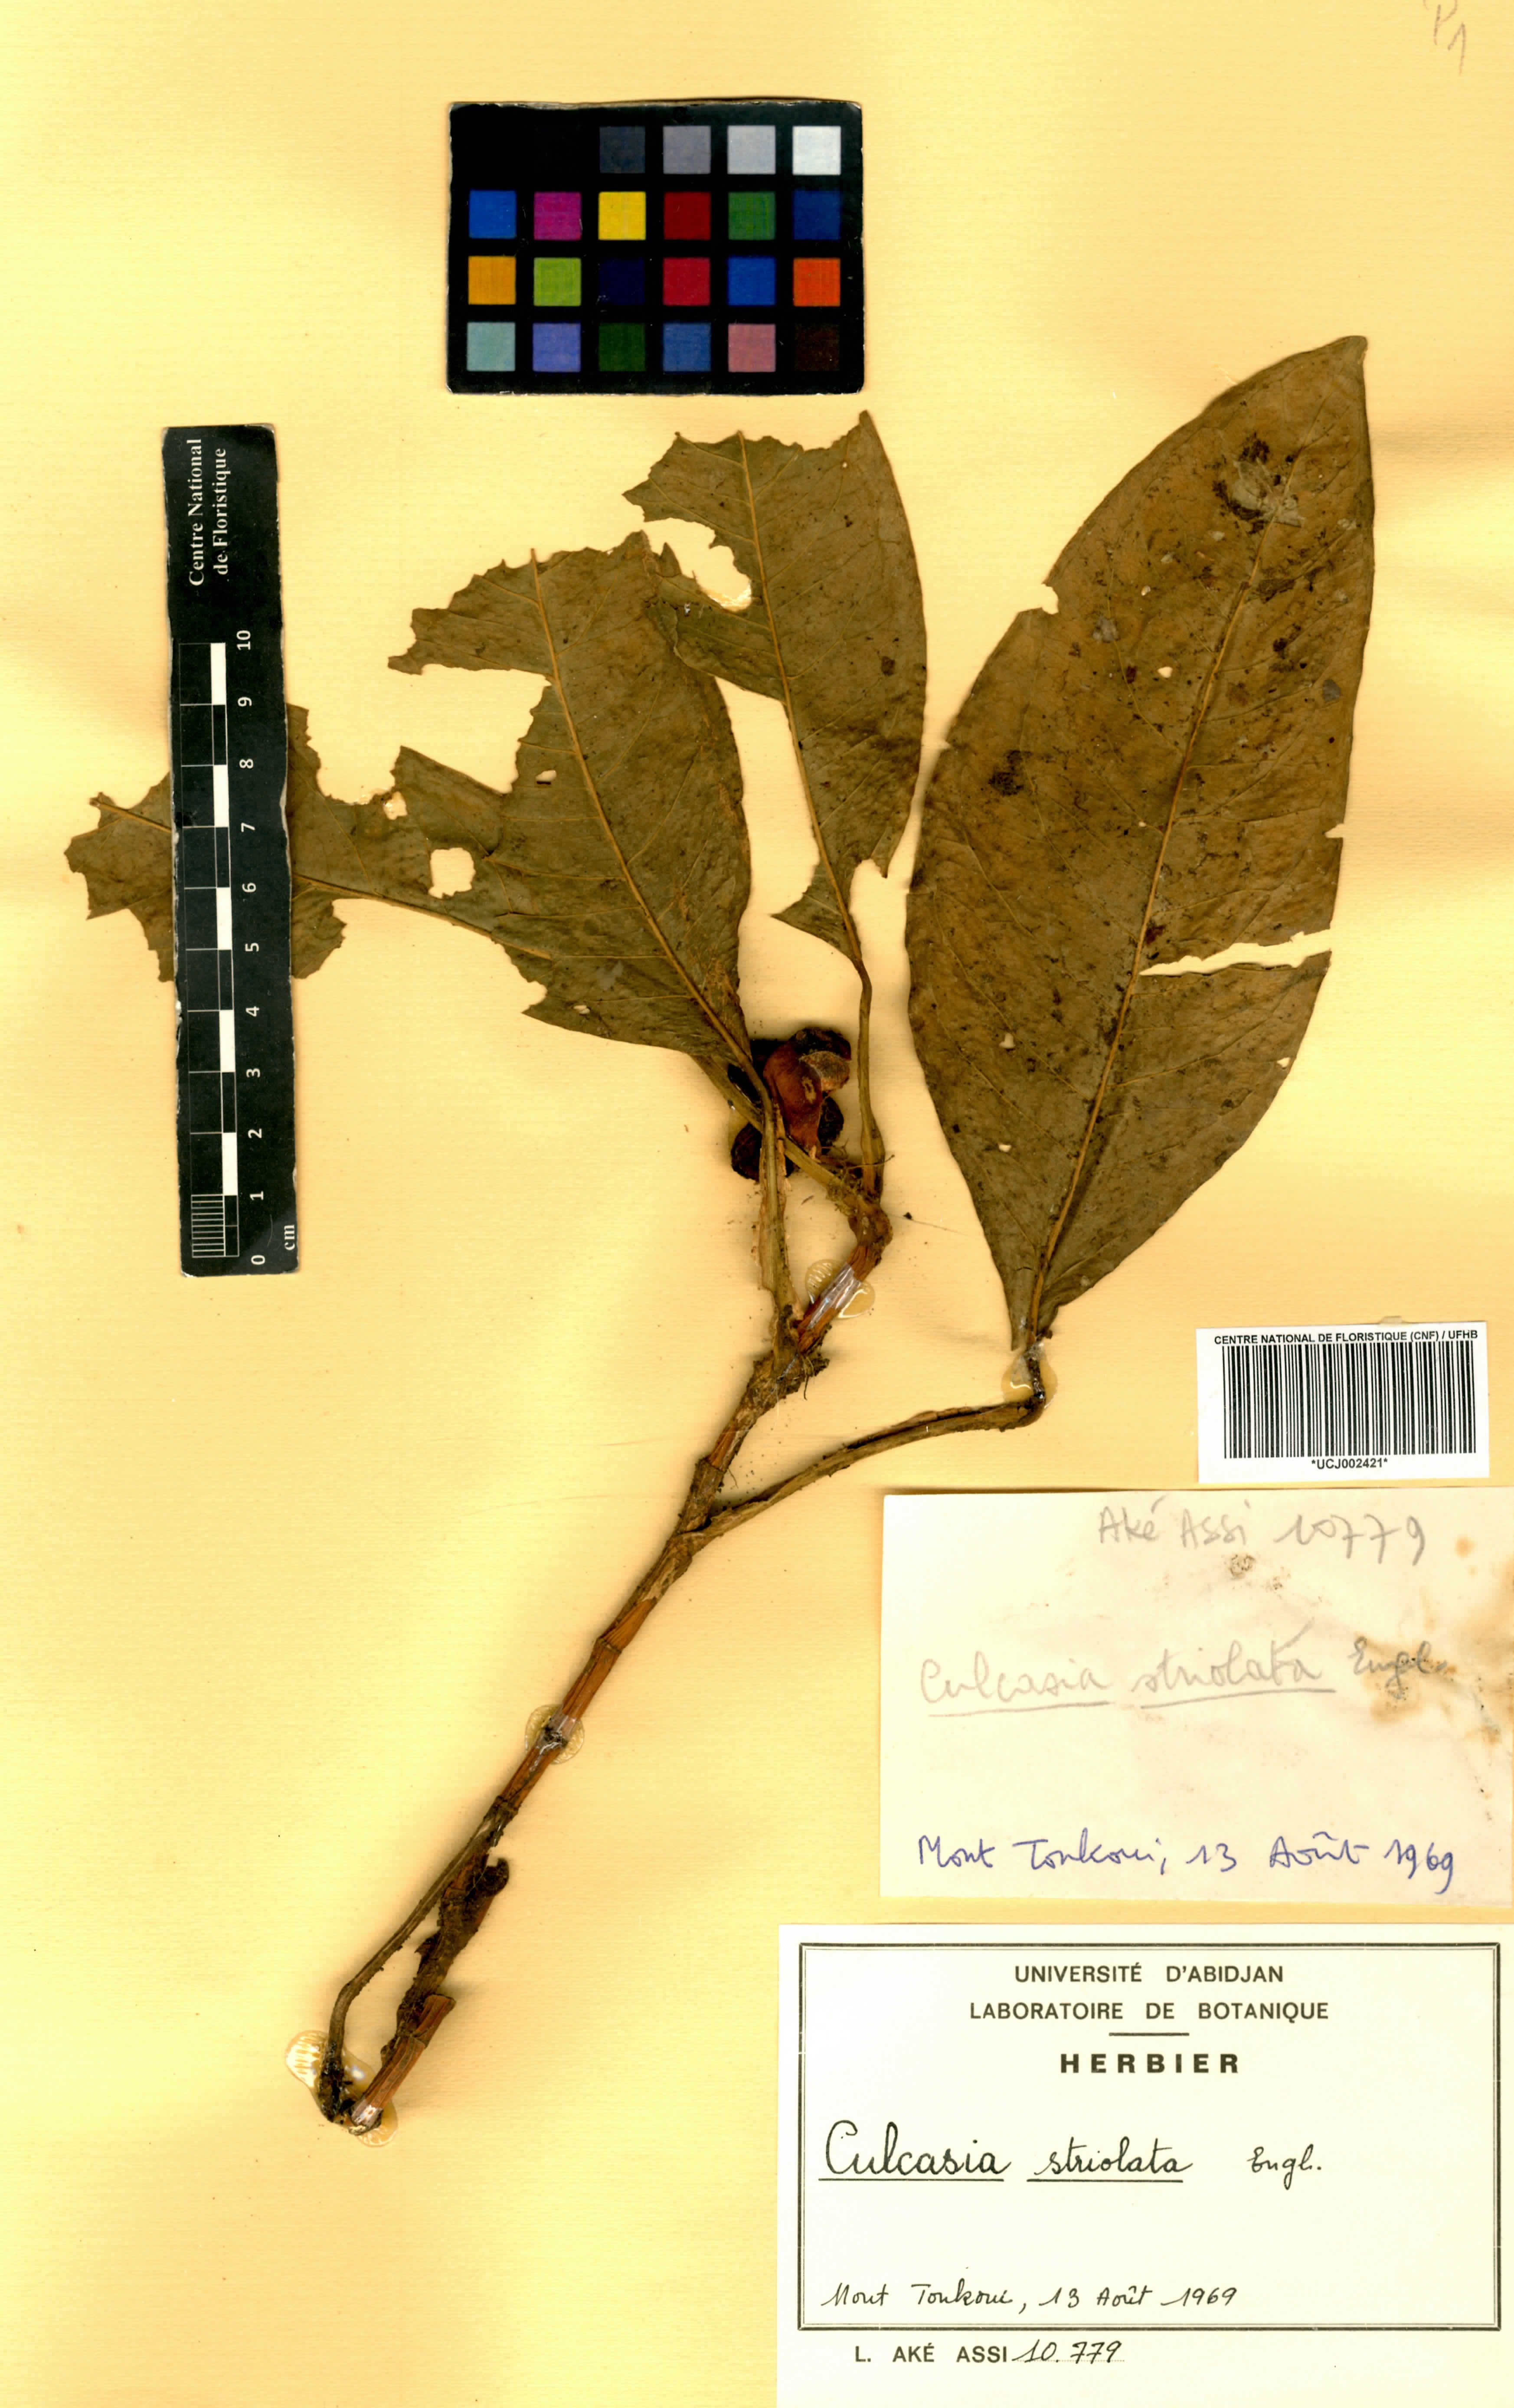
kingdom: Plantae
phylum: Tracheophyta
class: Liliopsida
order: Alismatales
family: Araceae
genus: Culcasia
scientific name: Culcasia striolata
